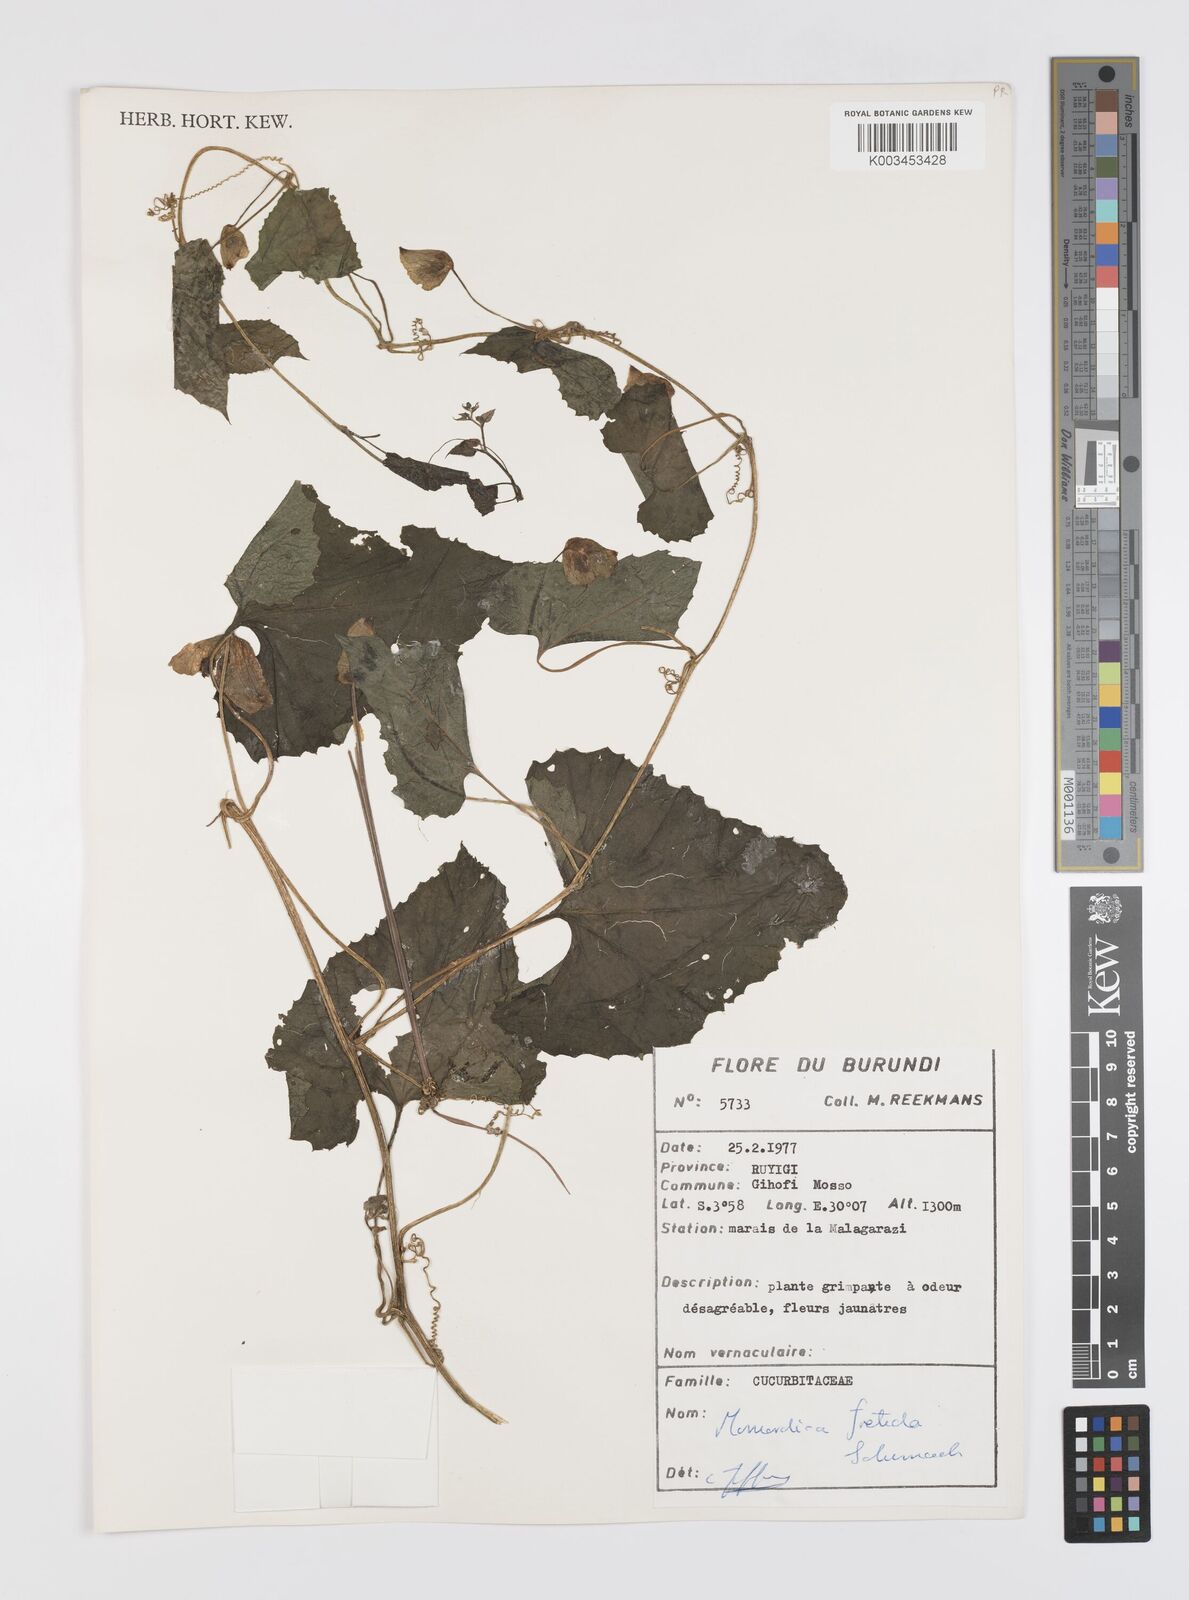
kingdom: Plantae
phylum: Tracheophyta
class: Magnoliopsida
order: Cucurbitales
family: Cucurbitaceae
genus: Momordica
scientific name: Momordica foetida
